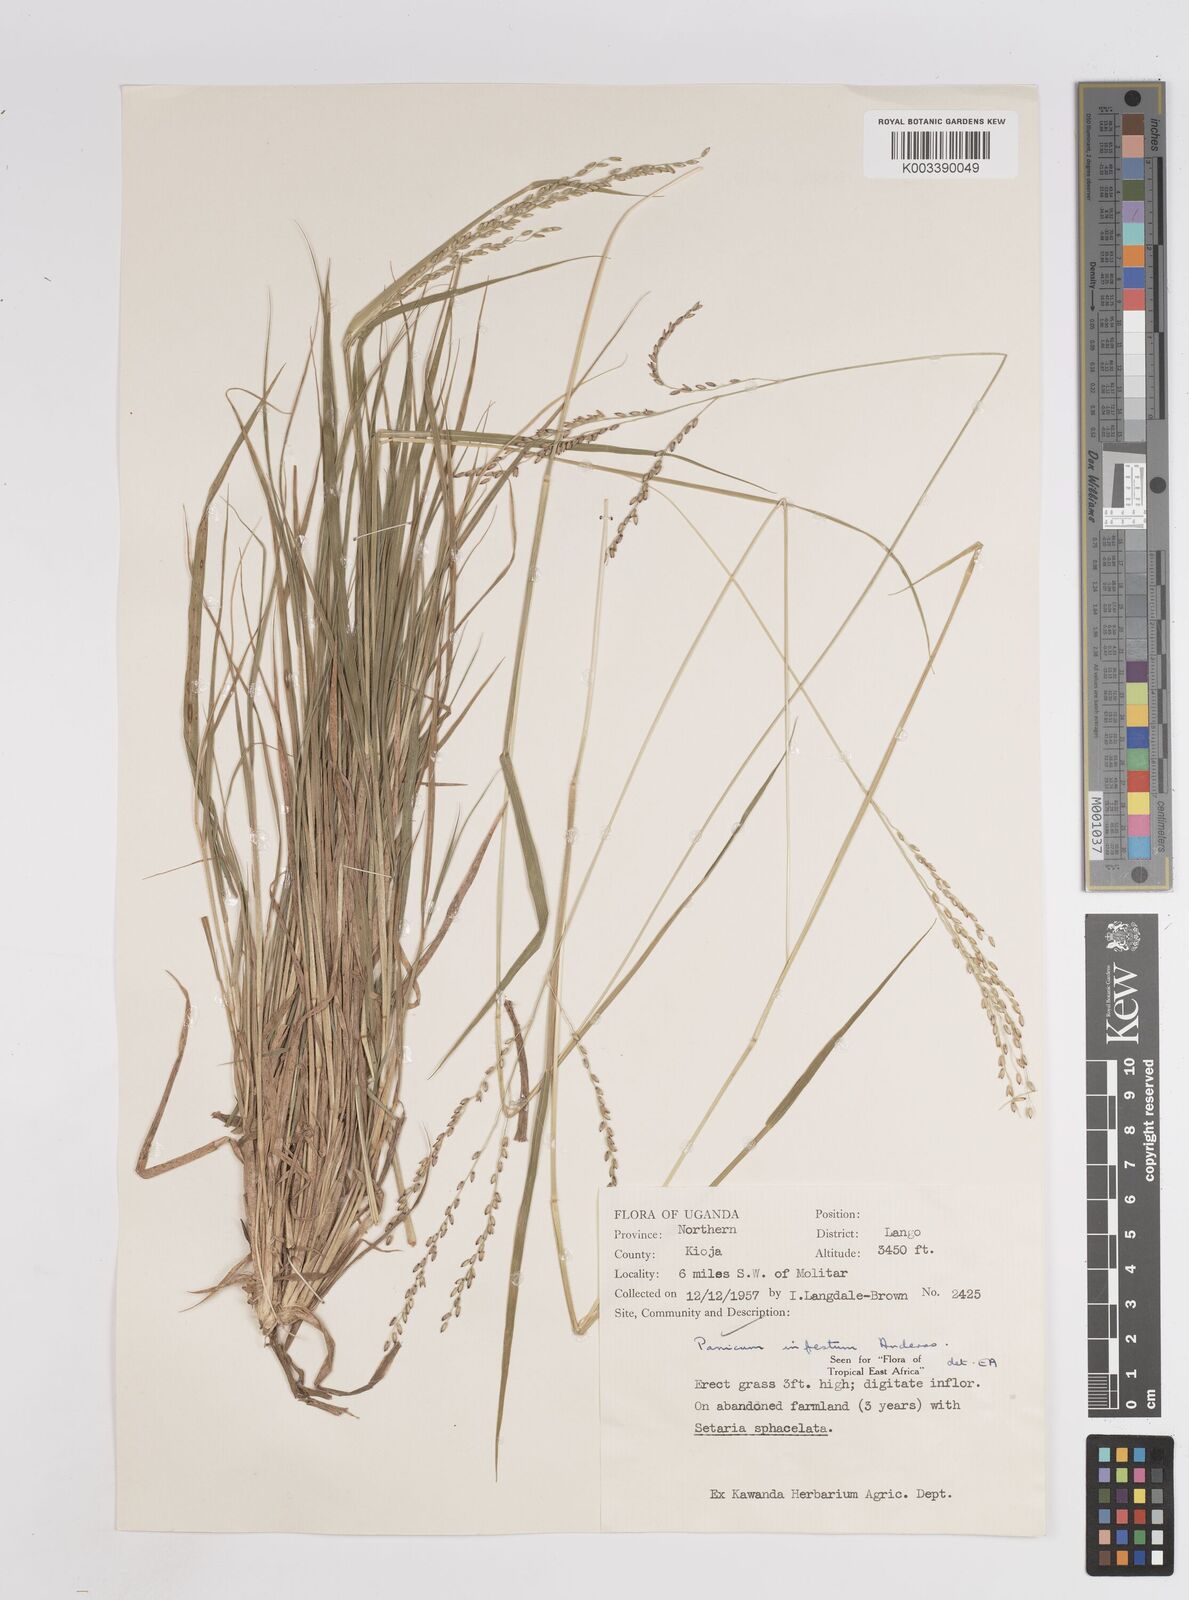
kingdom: Plantae
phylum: Tracheophyta
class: Liliopsida
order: Poales
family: Poaceae
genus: Megathyrsus
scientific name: Megathyrsus infestus
